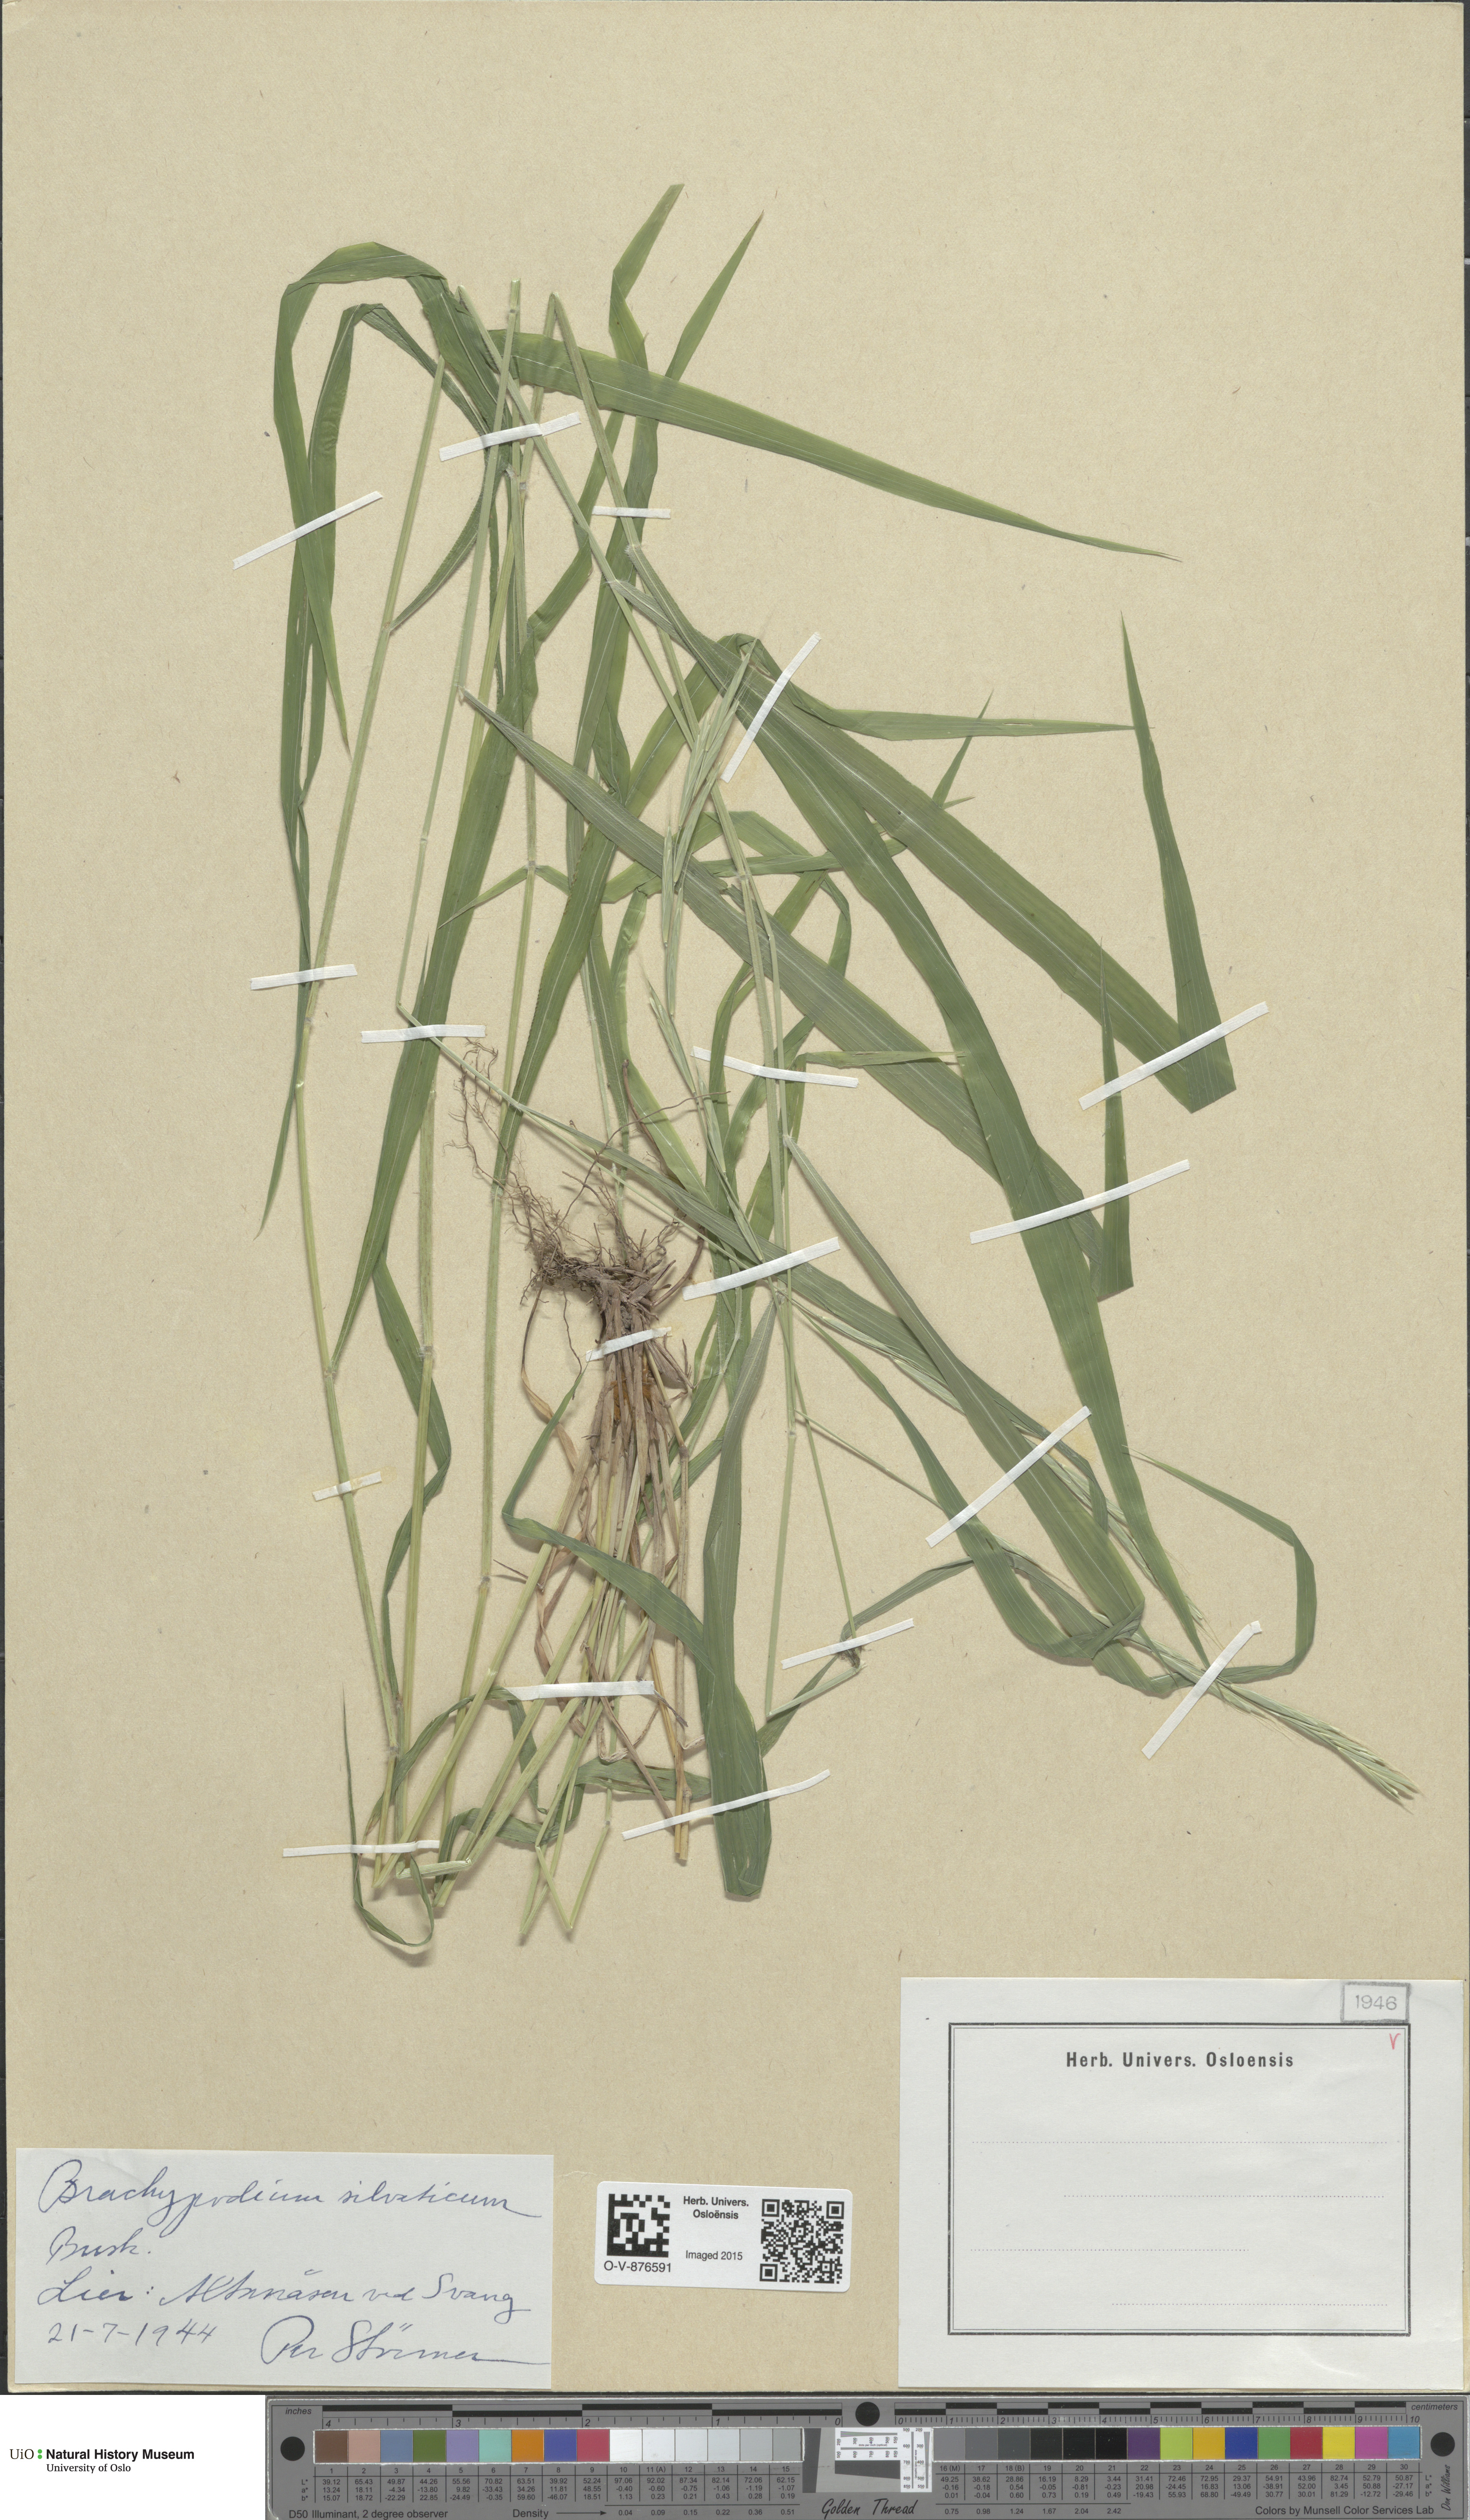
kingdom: Plantae
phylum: Tracheophyta
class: Liliopsida
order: Poales
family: Poaceae
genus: Brachypodium
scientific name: Brachypodium sylvaticum
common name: False-brome
